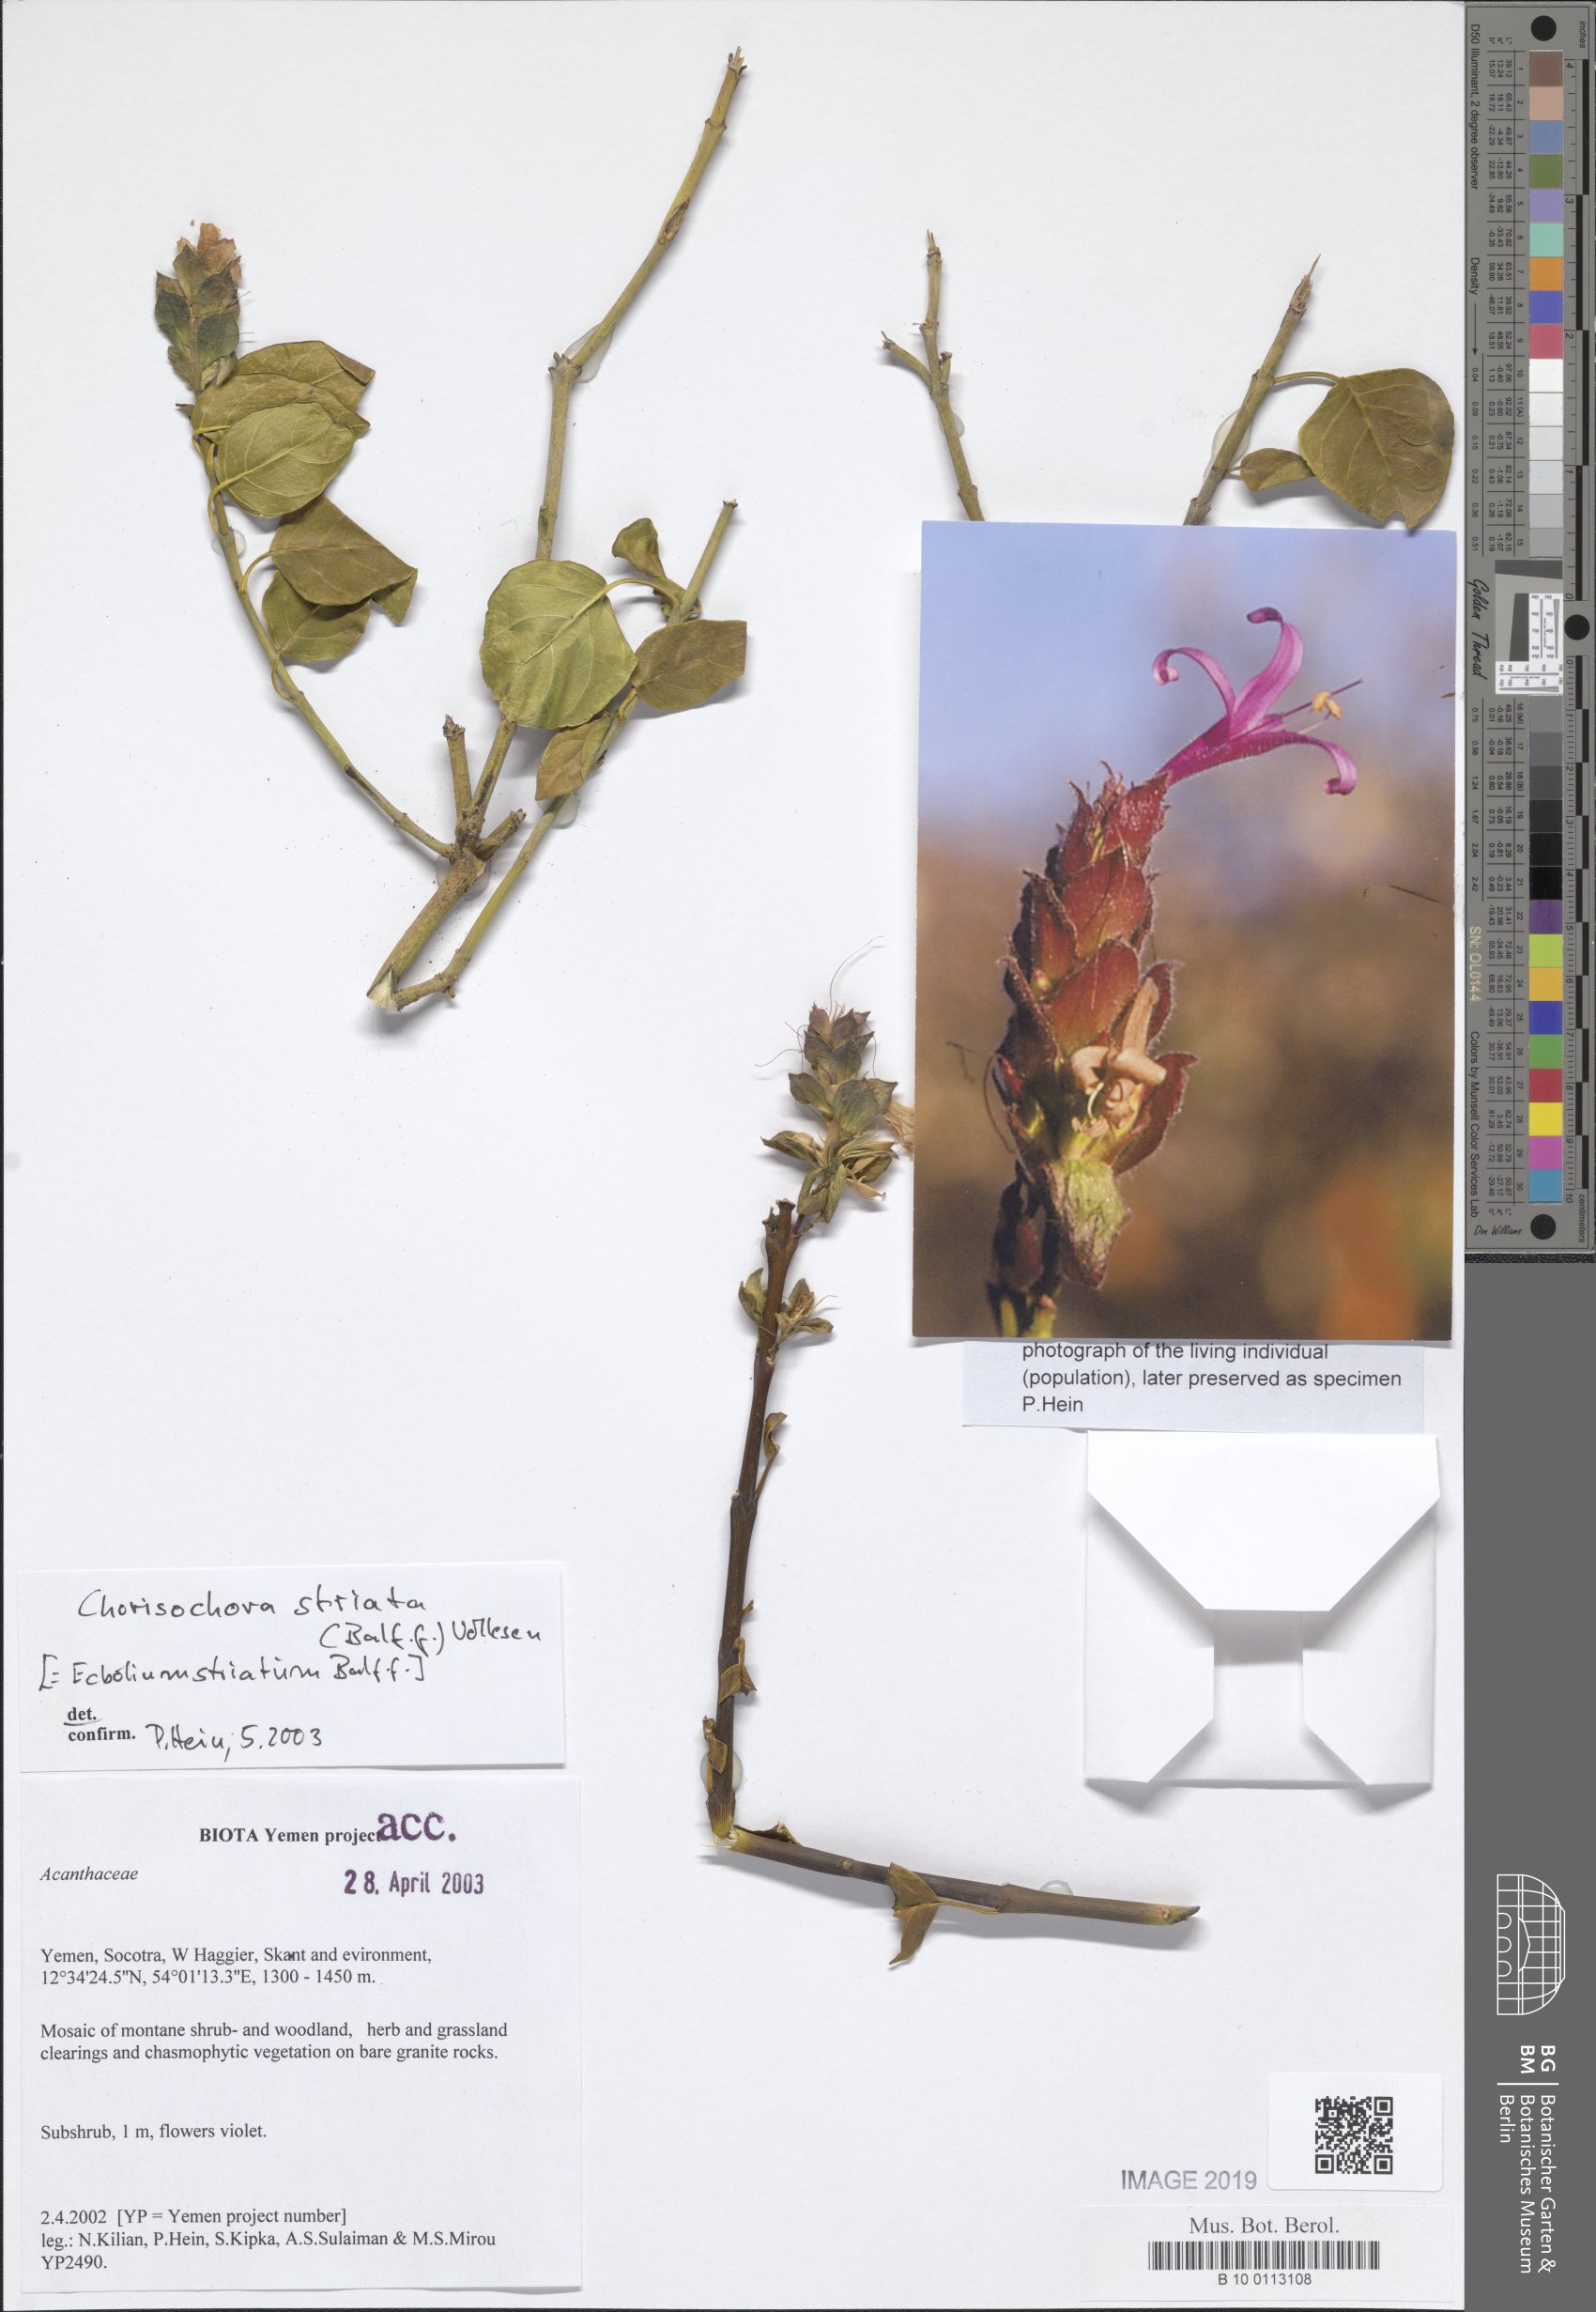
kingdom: Plantae
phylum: Tracheophyta
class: Magnoliopsida
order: Lamiales
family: Acanthaceae
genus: Chorisochora
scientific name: Chorisochora striata
